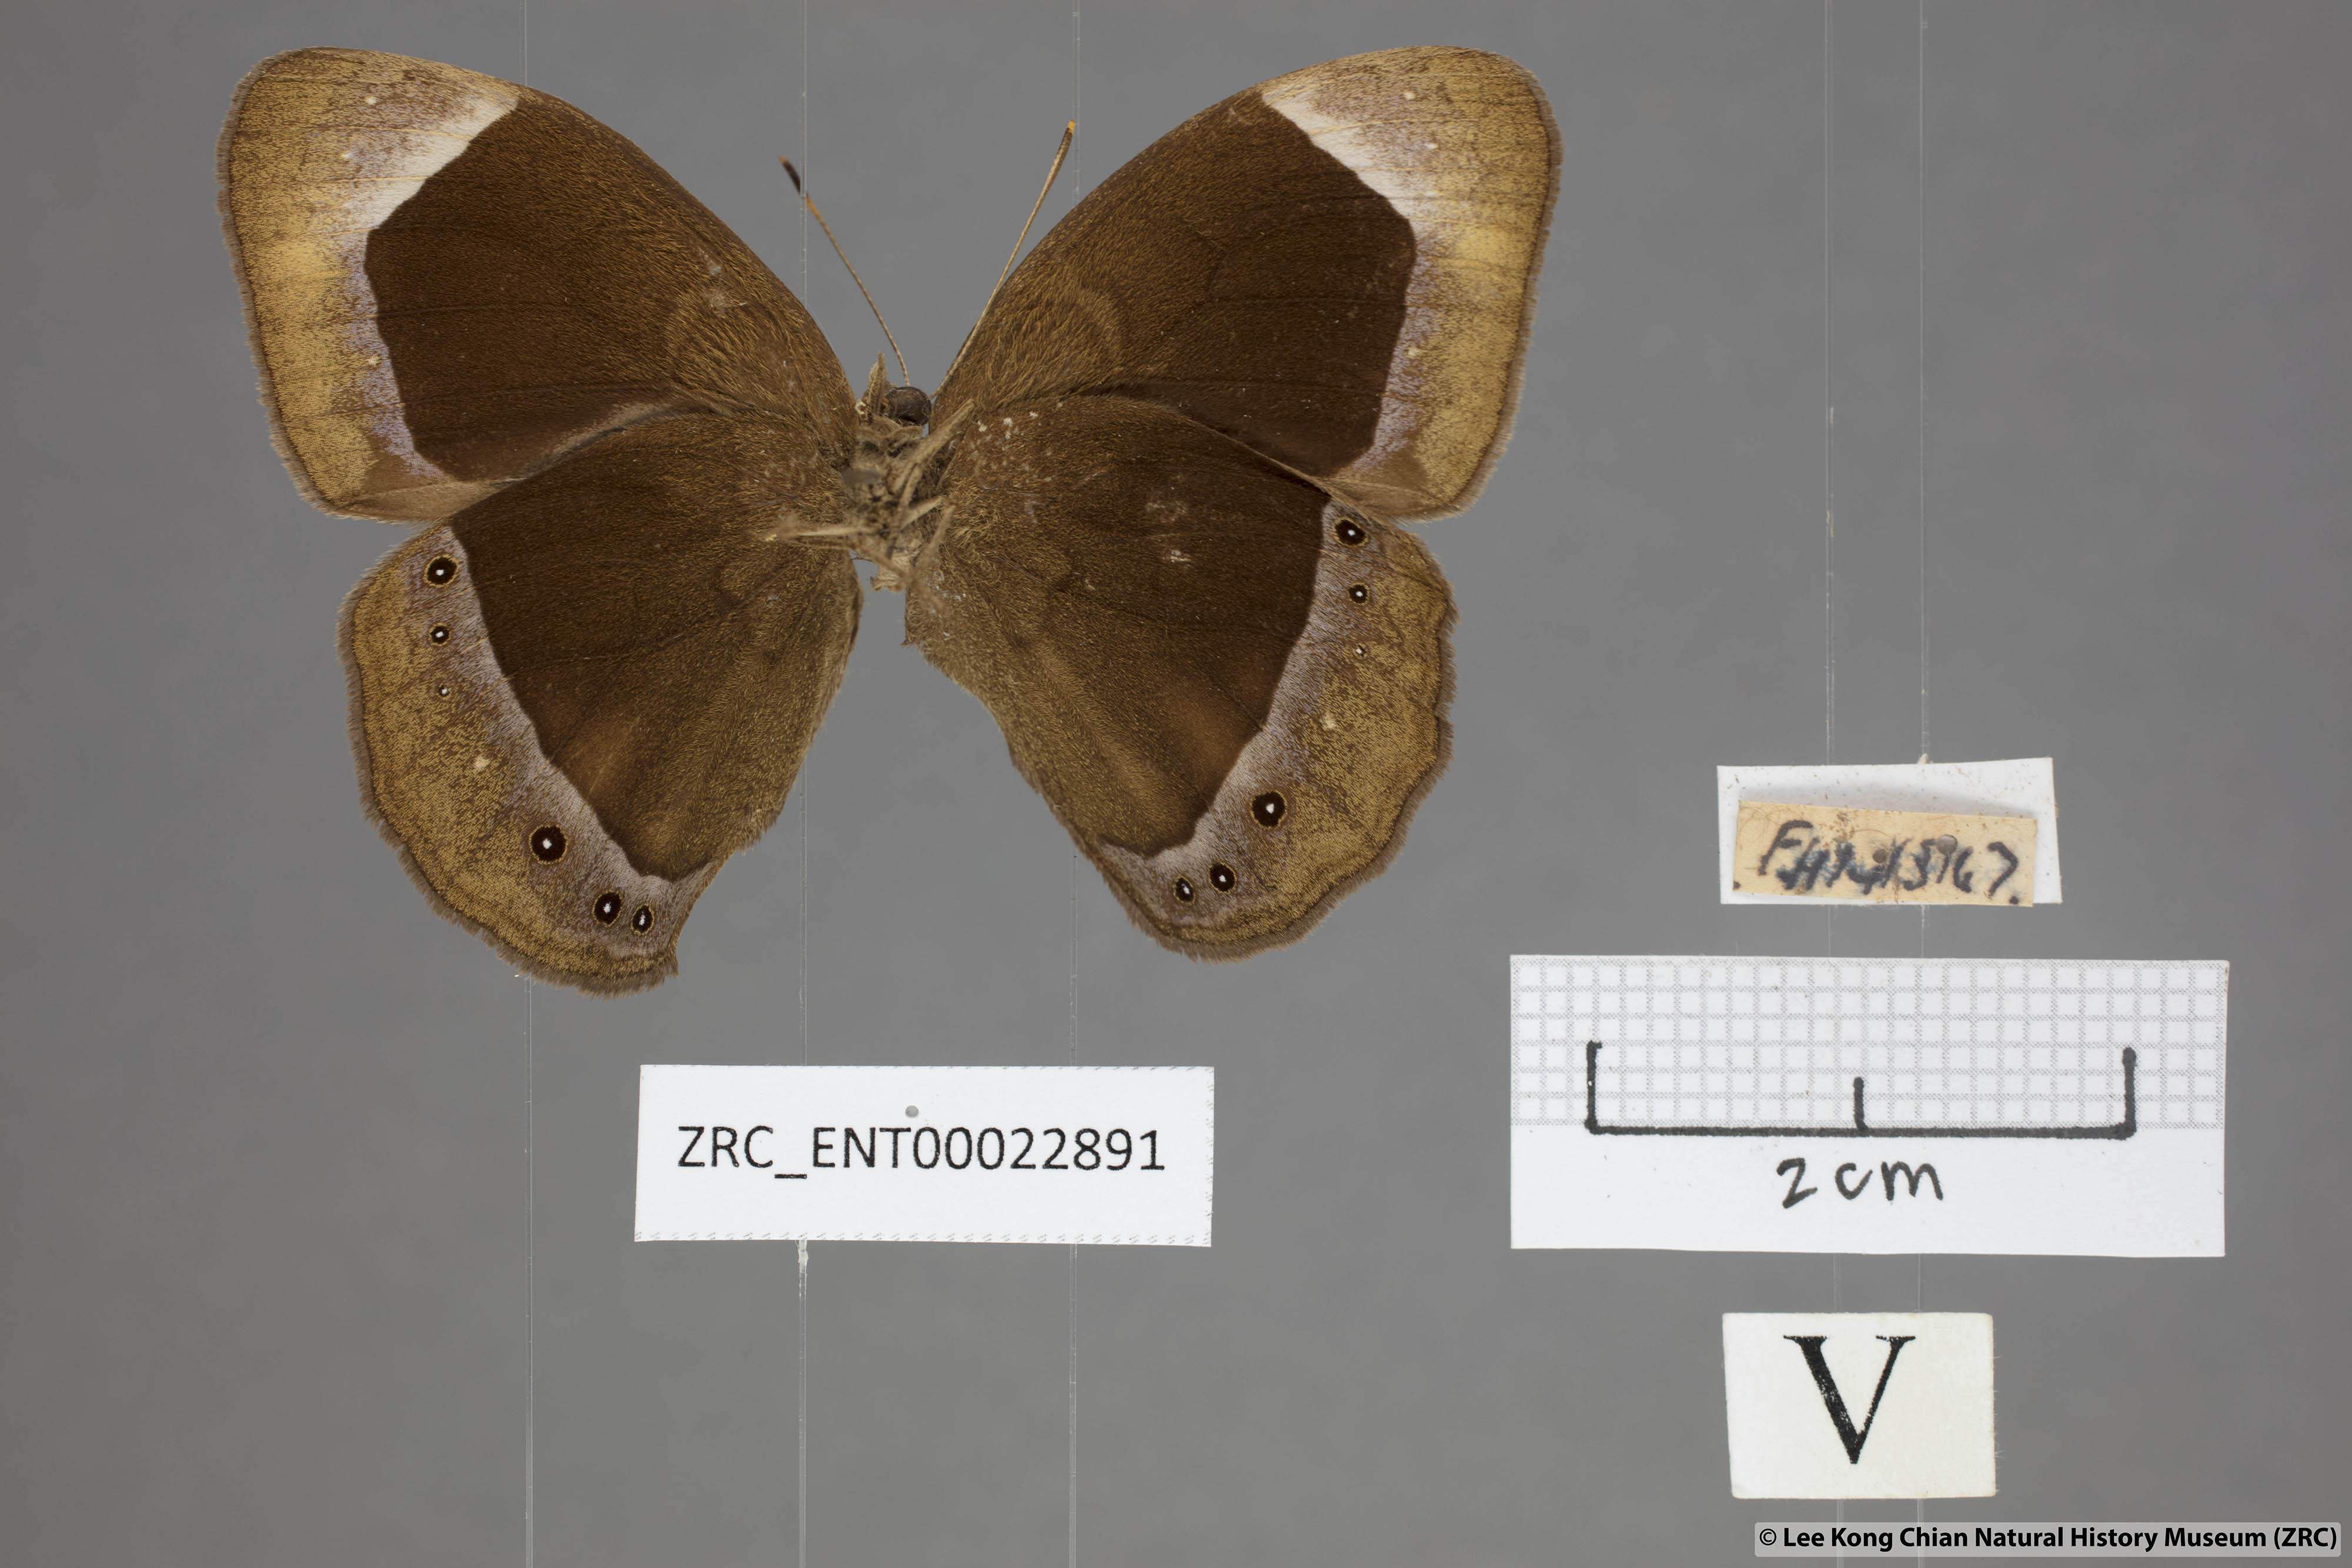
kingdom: Animalia
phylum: Arthropoda
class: Insecta
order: Lepidoptera
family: Nymphalidae
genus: Mycalesis
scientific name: Mycalesis anaxias
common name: White-bar bushbrown
